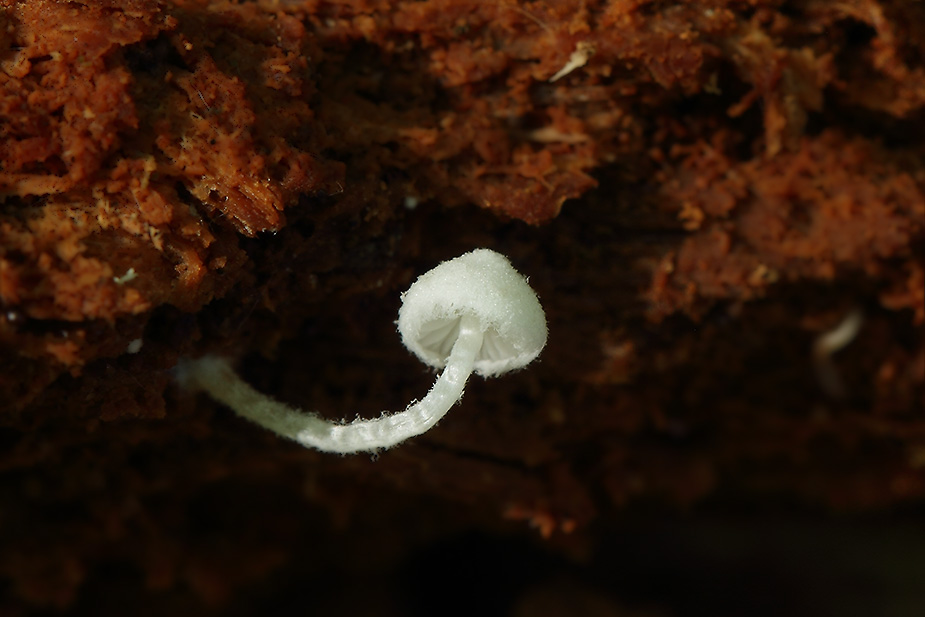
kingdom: Fungi
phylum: Basidiomycota
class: Agaricomycetes
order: Agaricales
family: Agaricaceae
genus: Cystolepiota
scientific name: Cystolepiota seminuda
